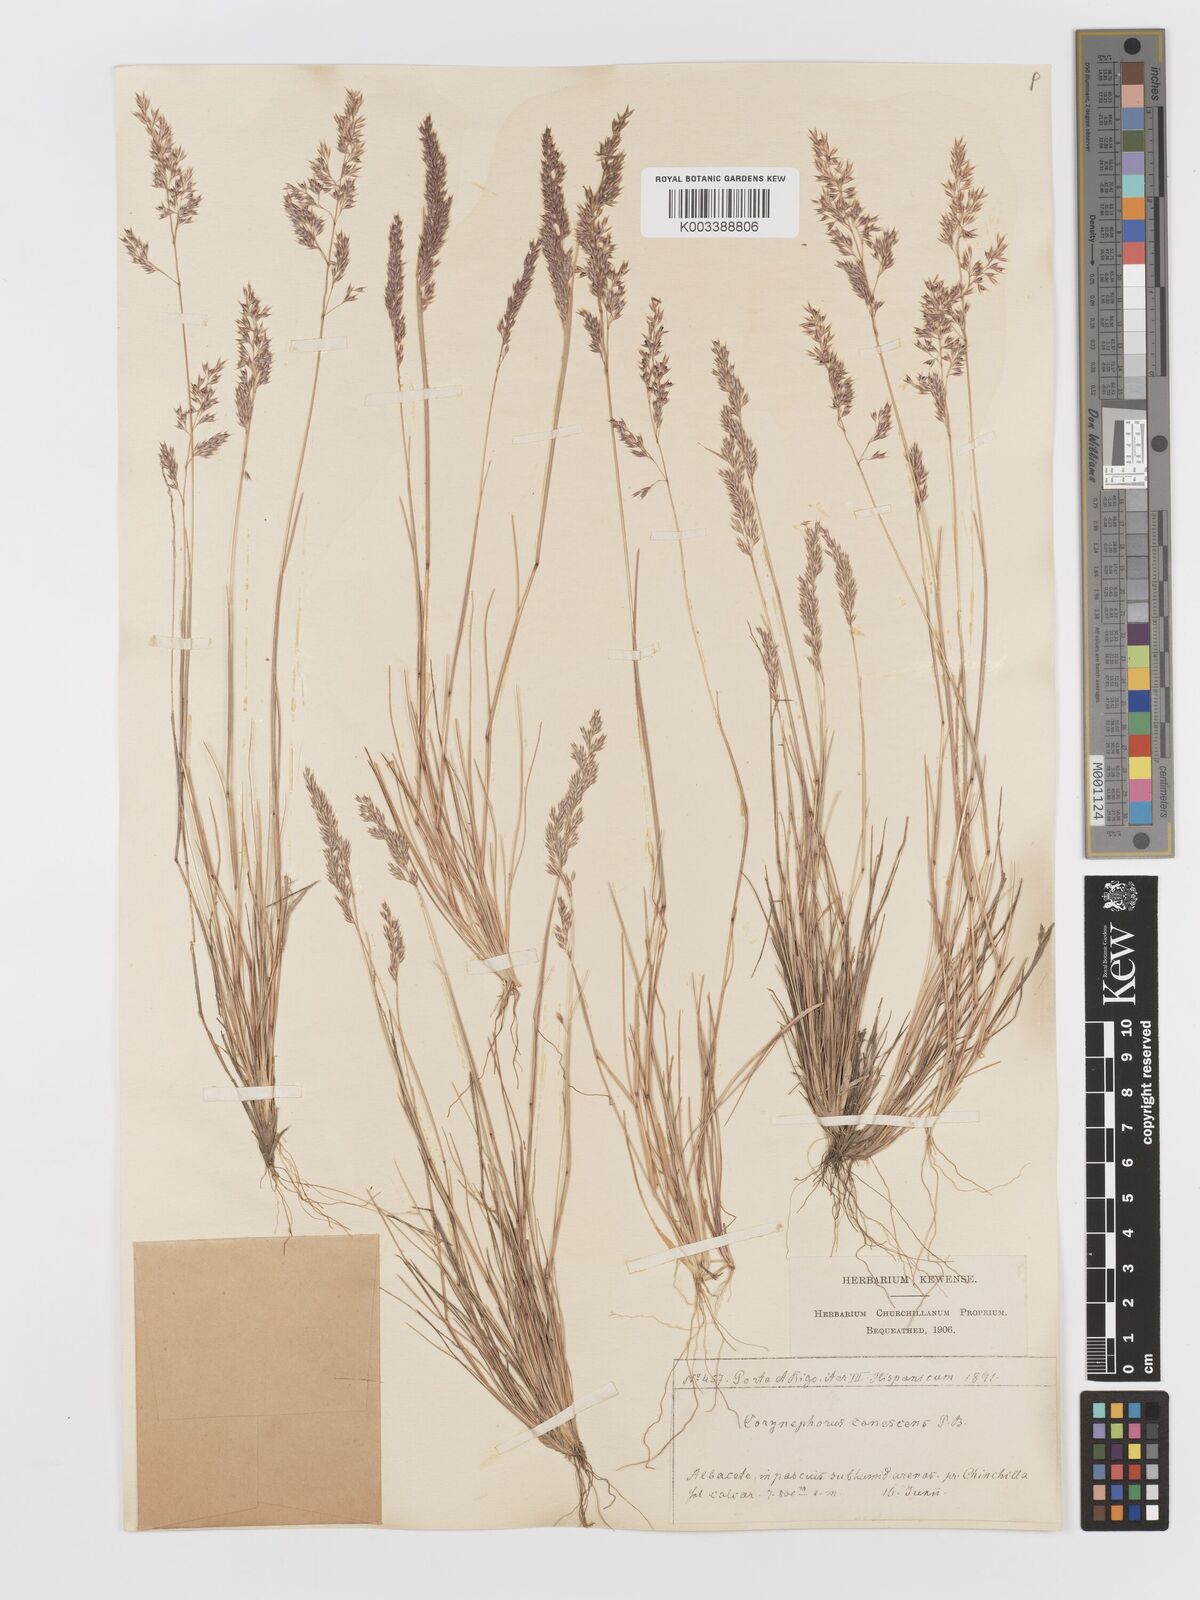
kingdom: Plantae
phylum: Tracheophyta
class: Liliopsida
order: Poales
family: Poaceae
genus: Corynephorus
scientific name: Corynephorus canescens
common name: Grey hair-grass
